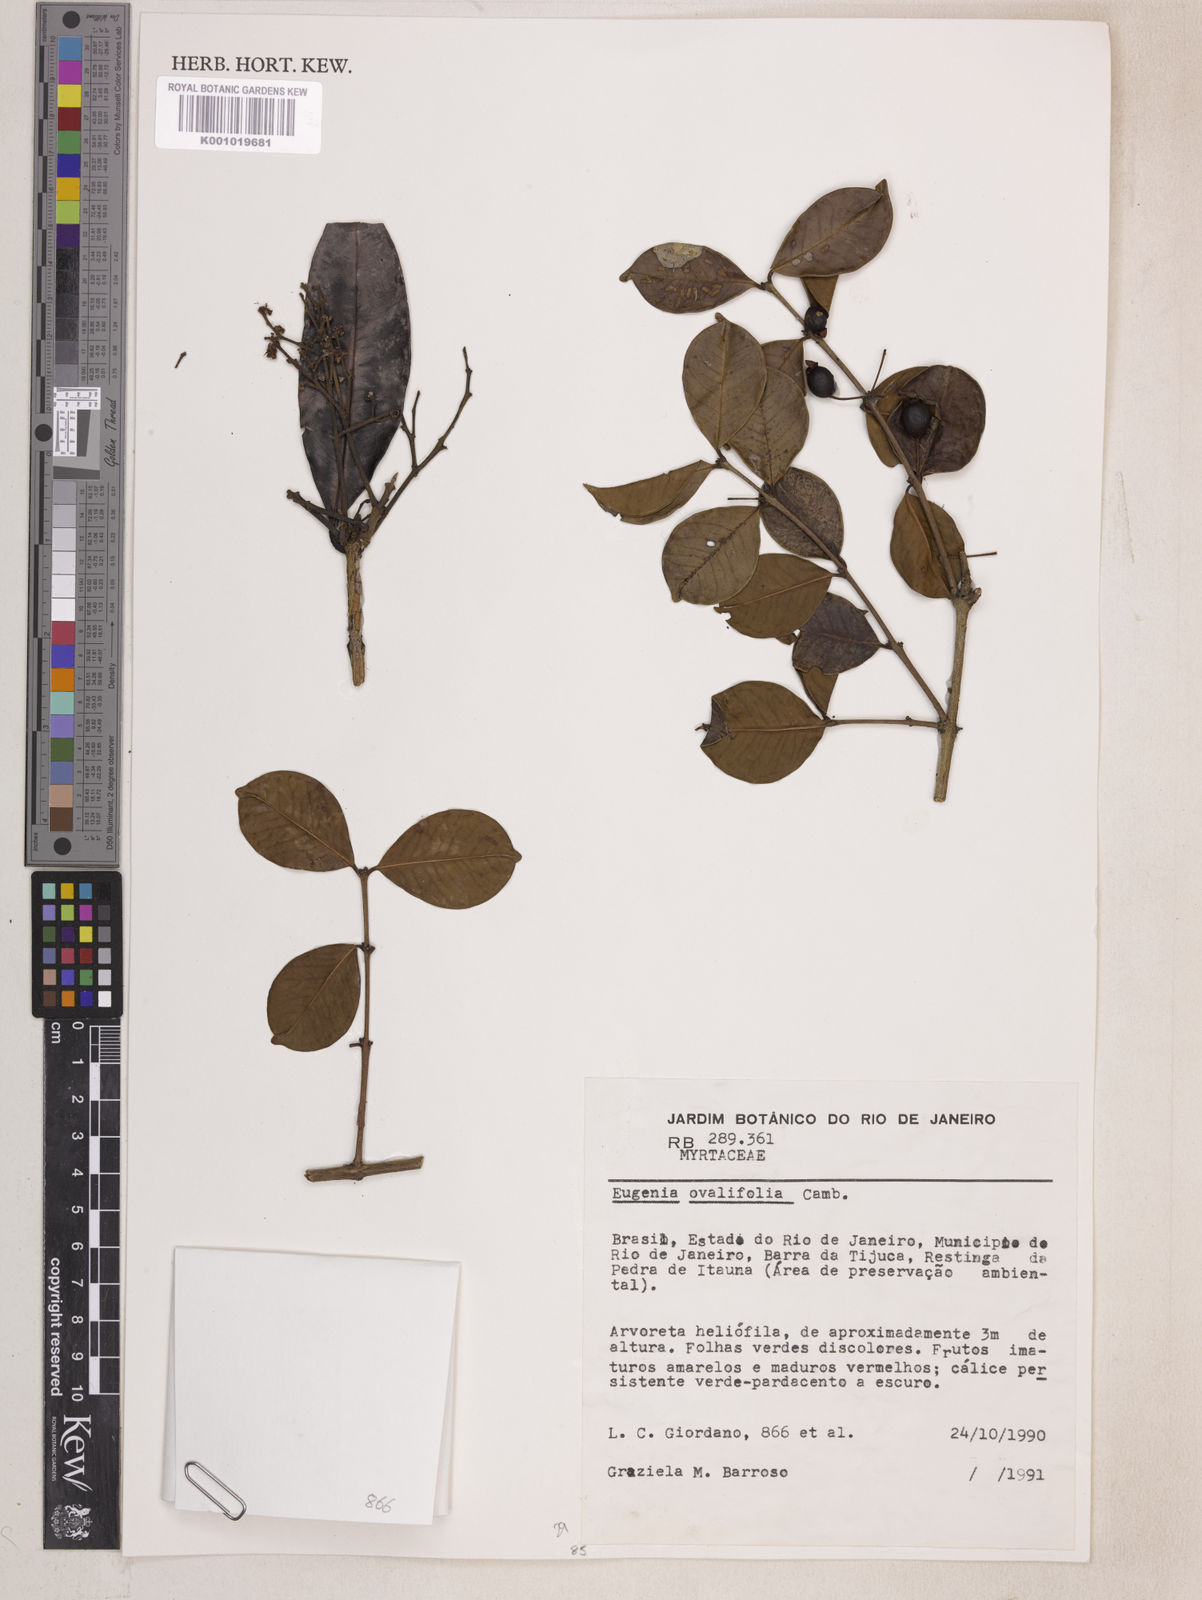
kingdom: Plantae
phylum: Tracheophyta
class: Magnoliopsida
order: Myrtales
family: Myrtaceae
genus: Eugenia
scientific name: Eugenia punicifolia
